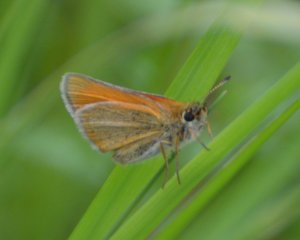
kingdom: Animalia
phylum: Arthropoda
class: Insecta
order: Lepidoptera
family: Hesperiidae
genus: Thymelicus
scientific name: Thymelicus lineola
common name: European Skipper
